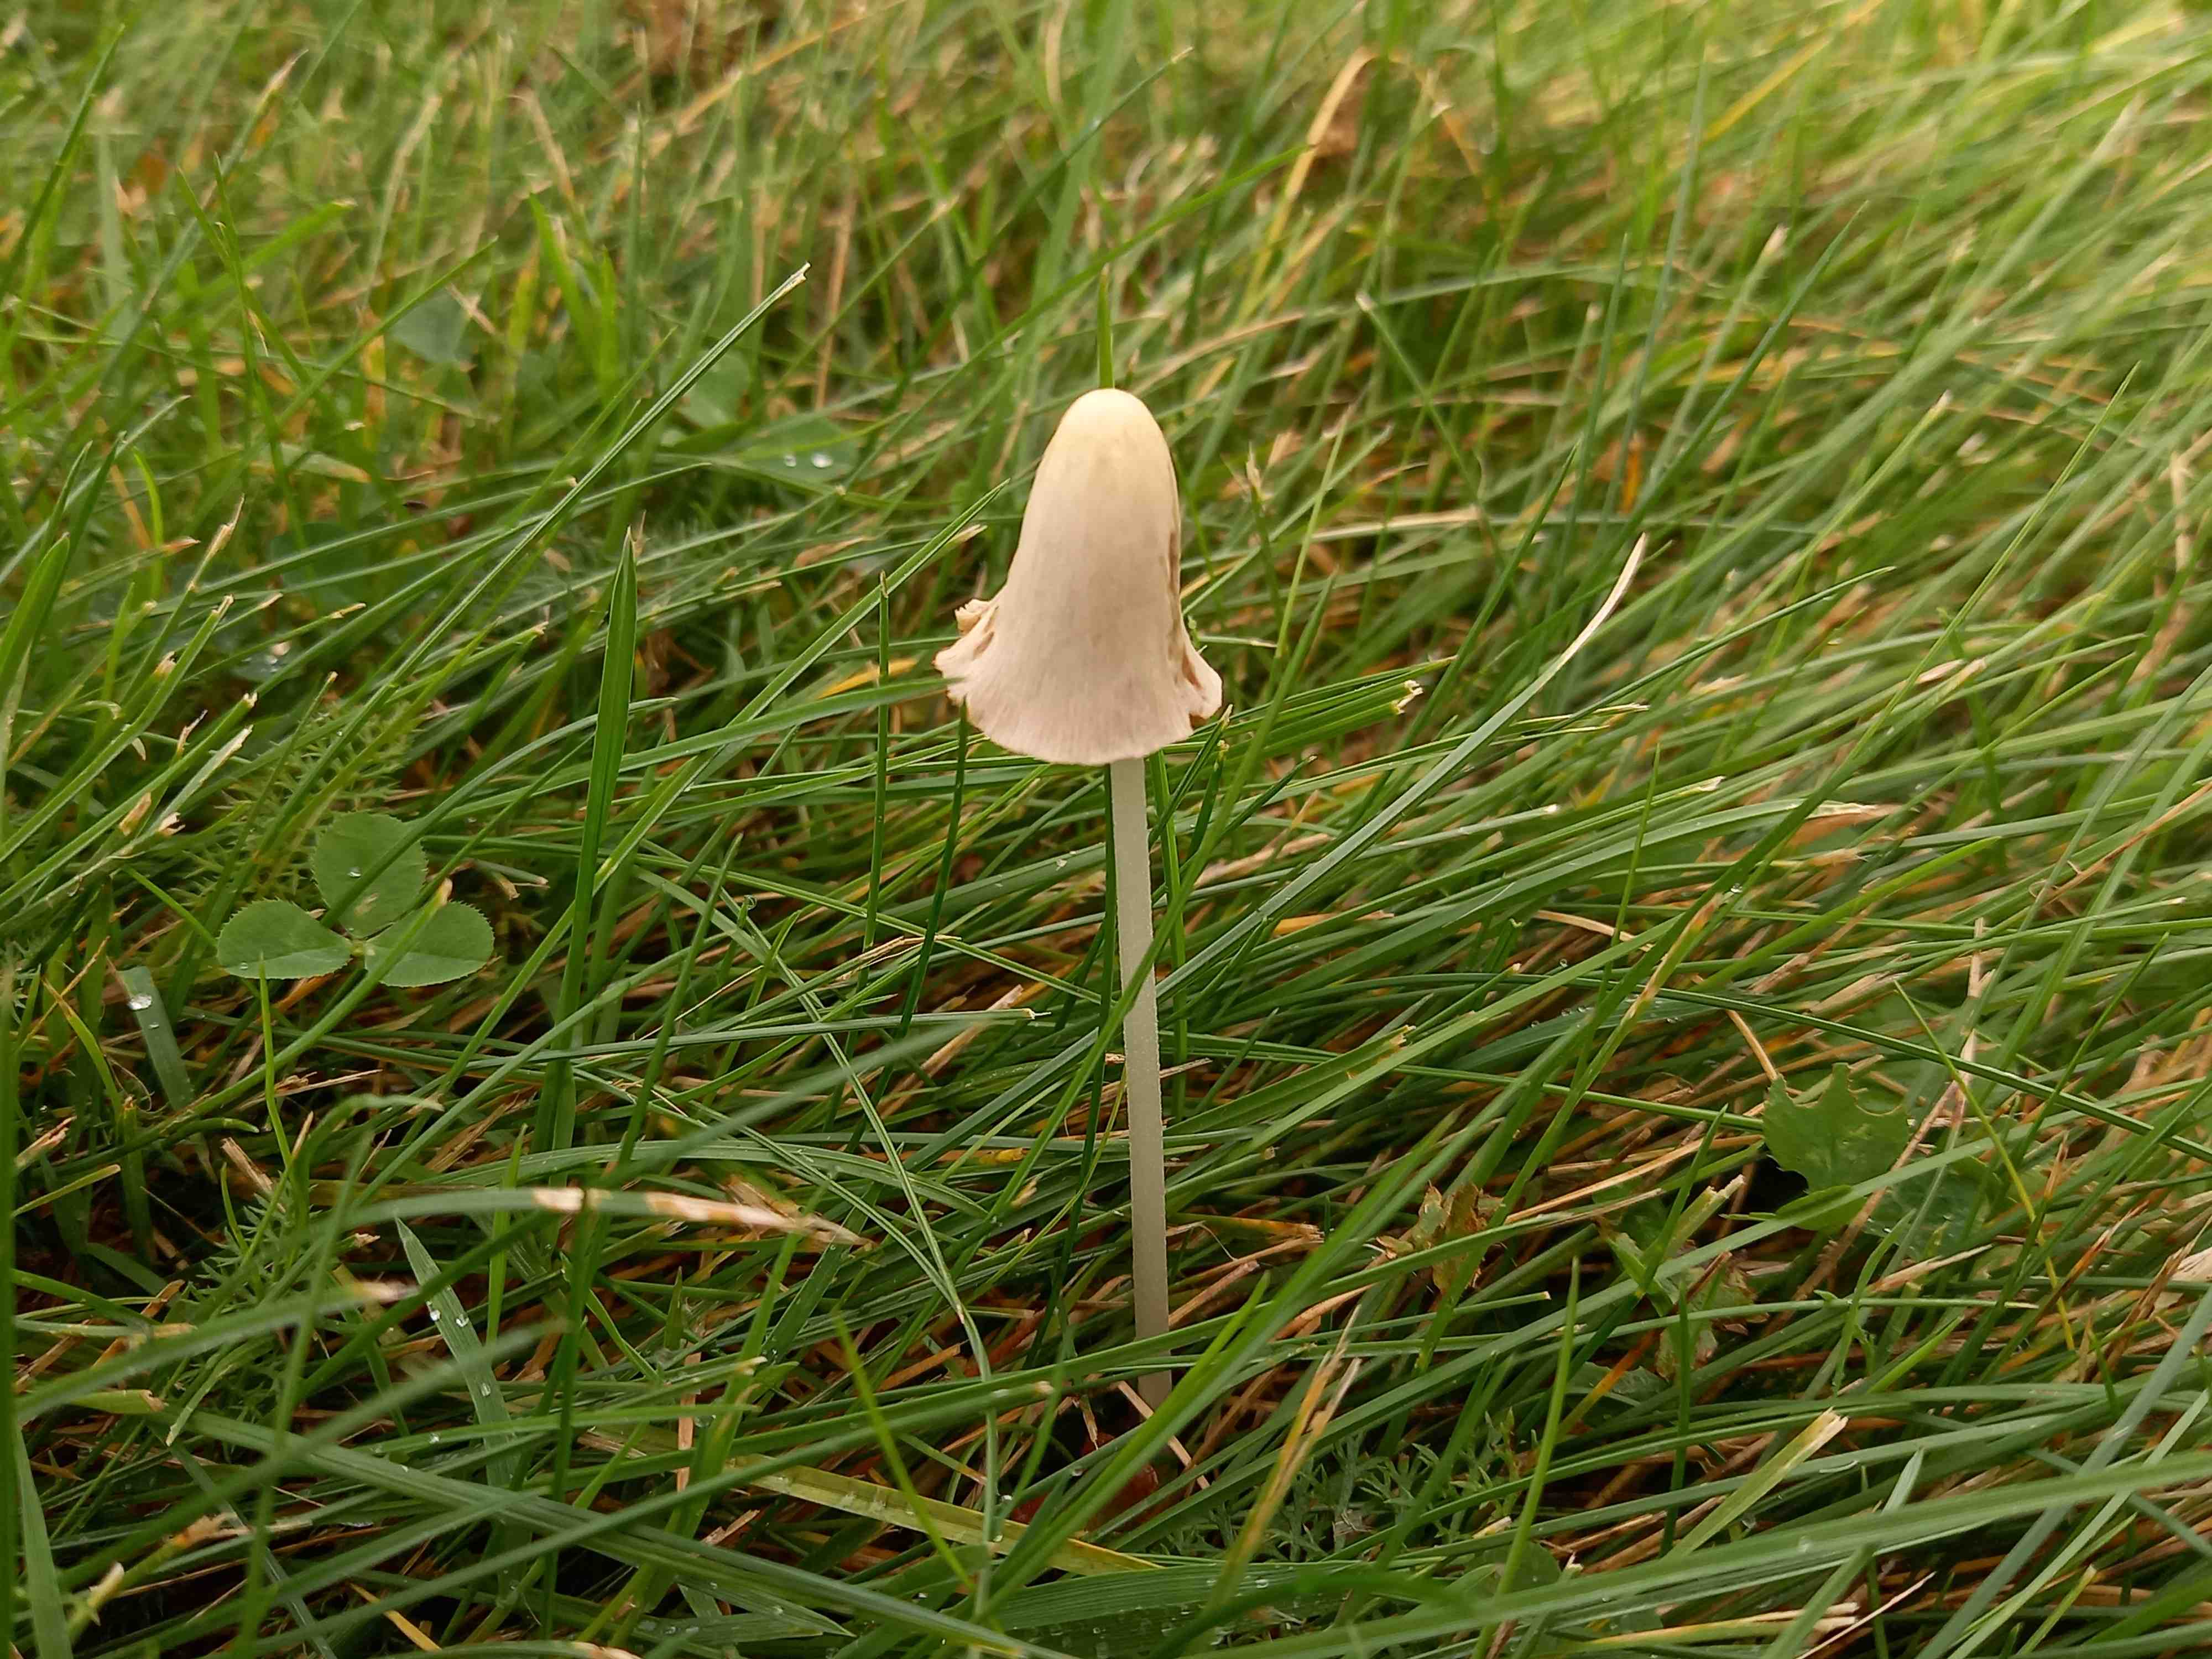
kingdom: Fungi
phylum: Basidiomycota
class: Agaricomycetes
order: Agaricales
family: Bolbitiaceae
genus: Conocybe
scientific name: Conocybe apala
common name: mælkehvid keglehat
